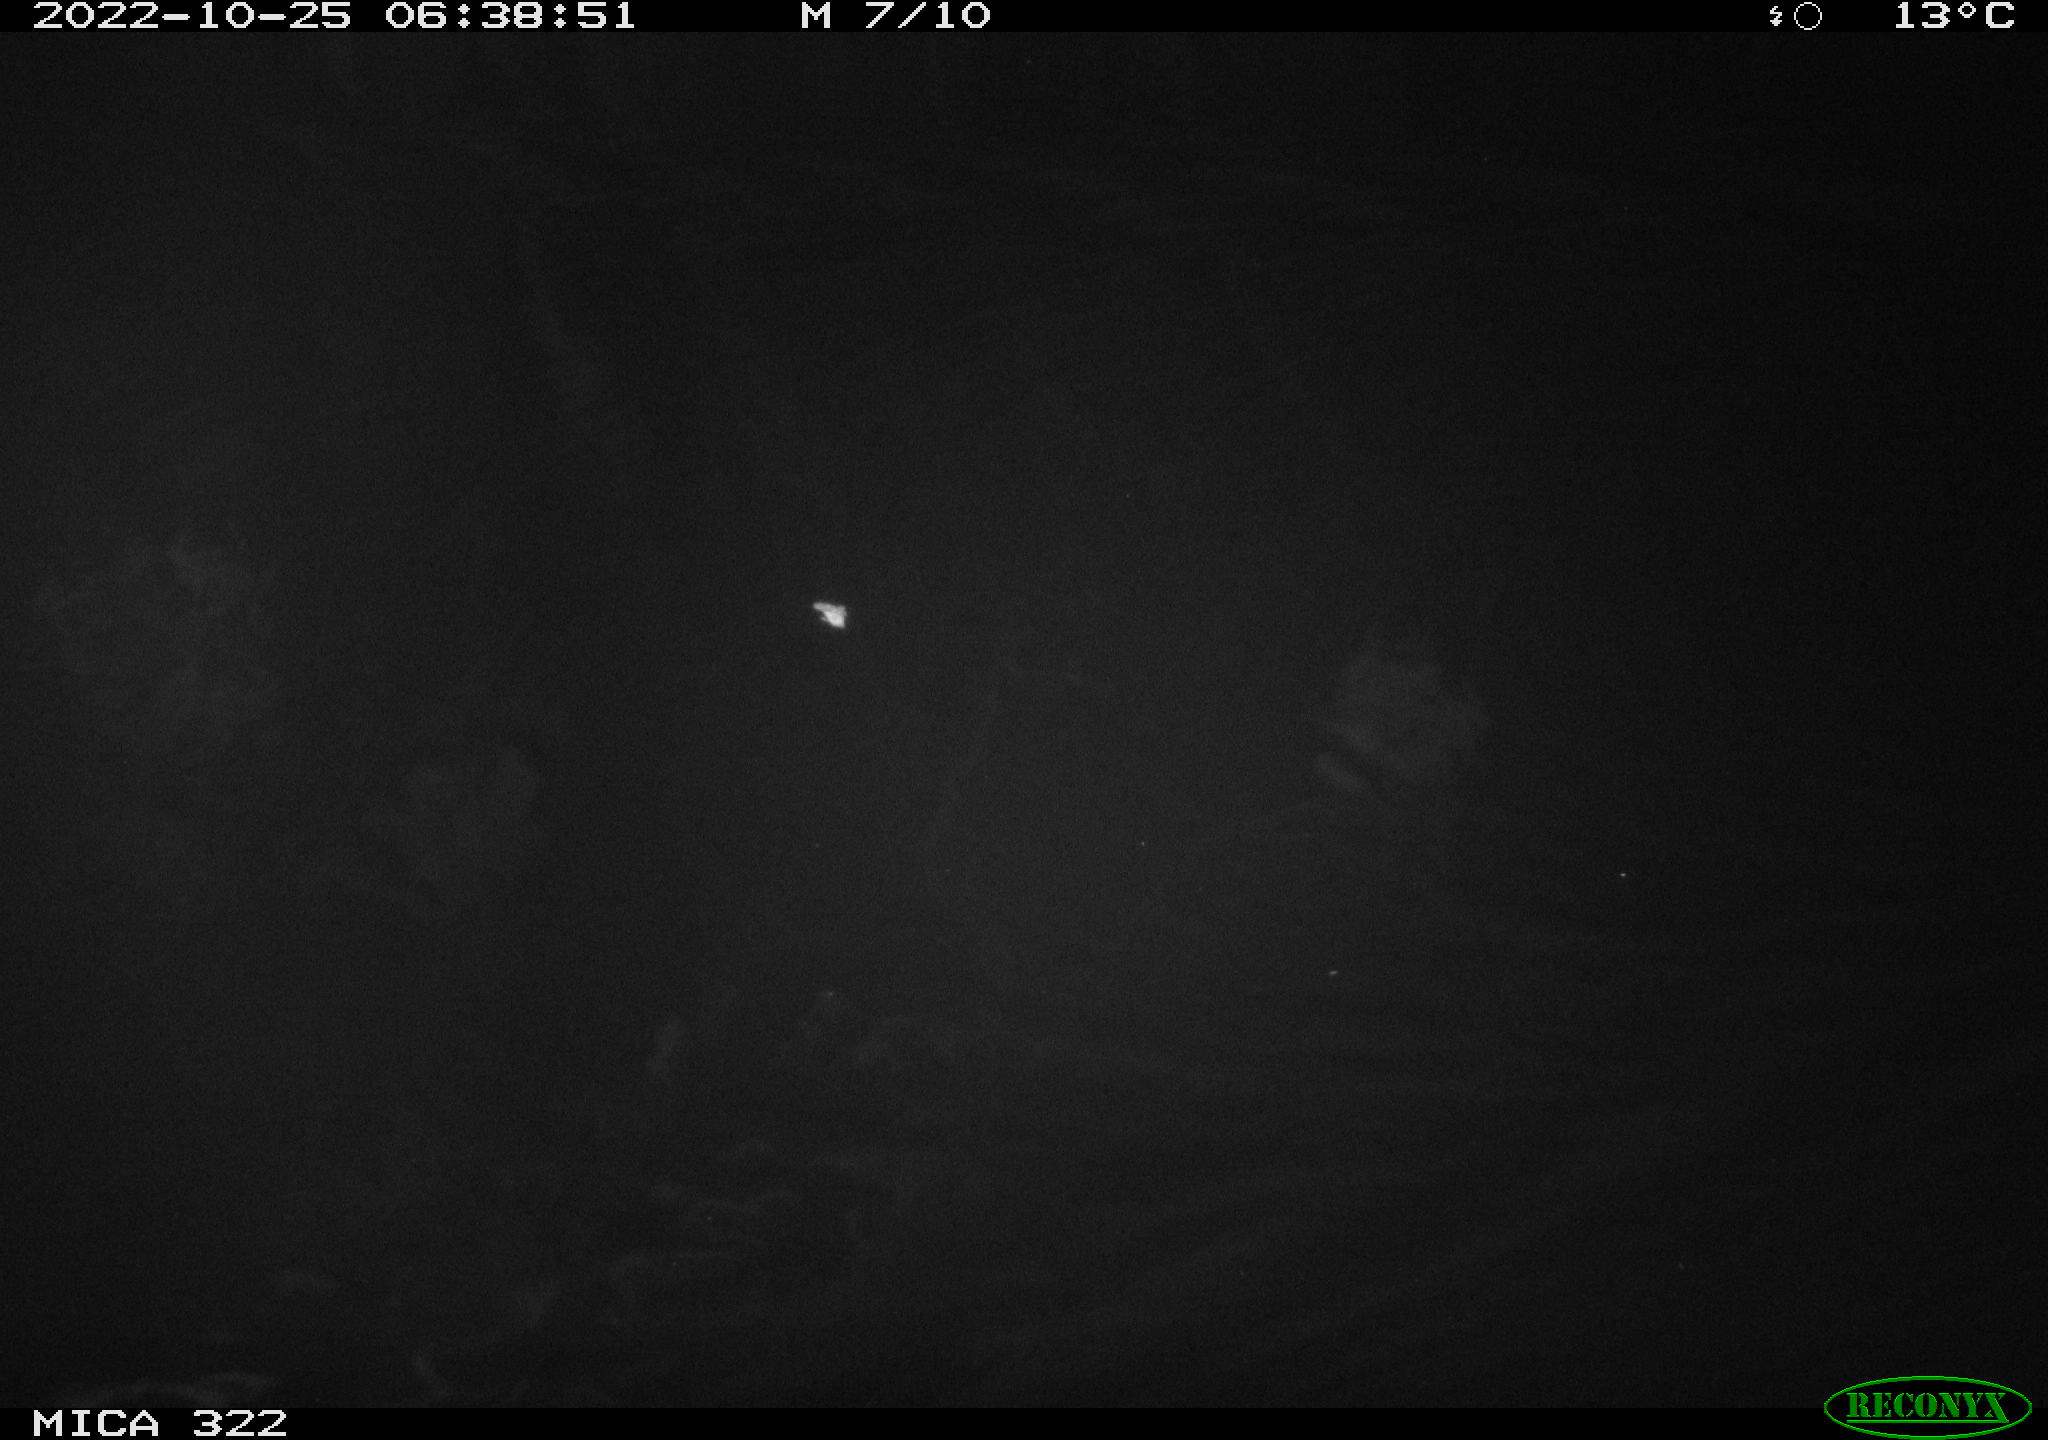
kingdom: Animalia
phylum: Chordata
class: Mammalia
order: Rodentia
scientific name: Rodentia
